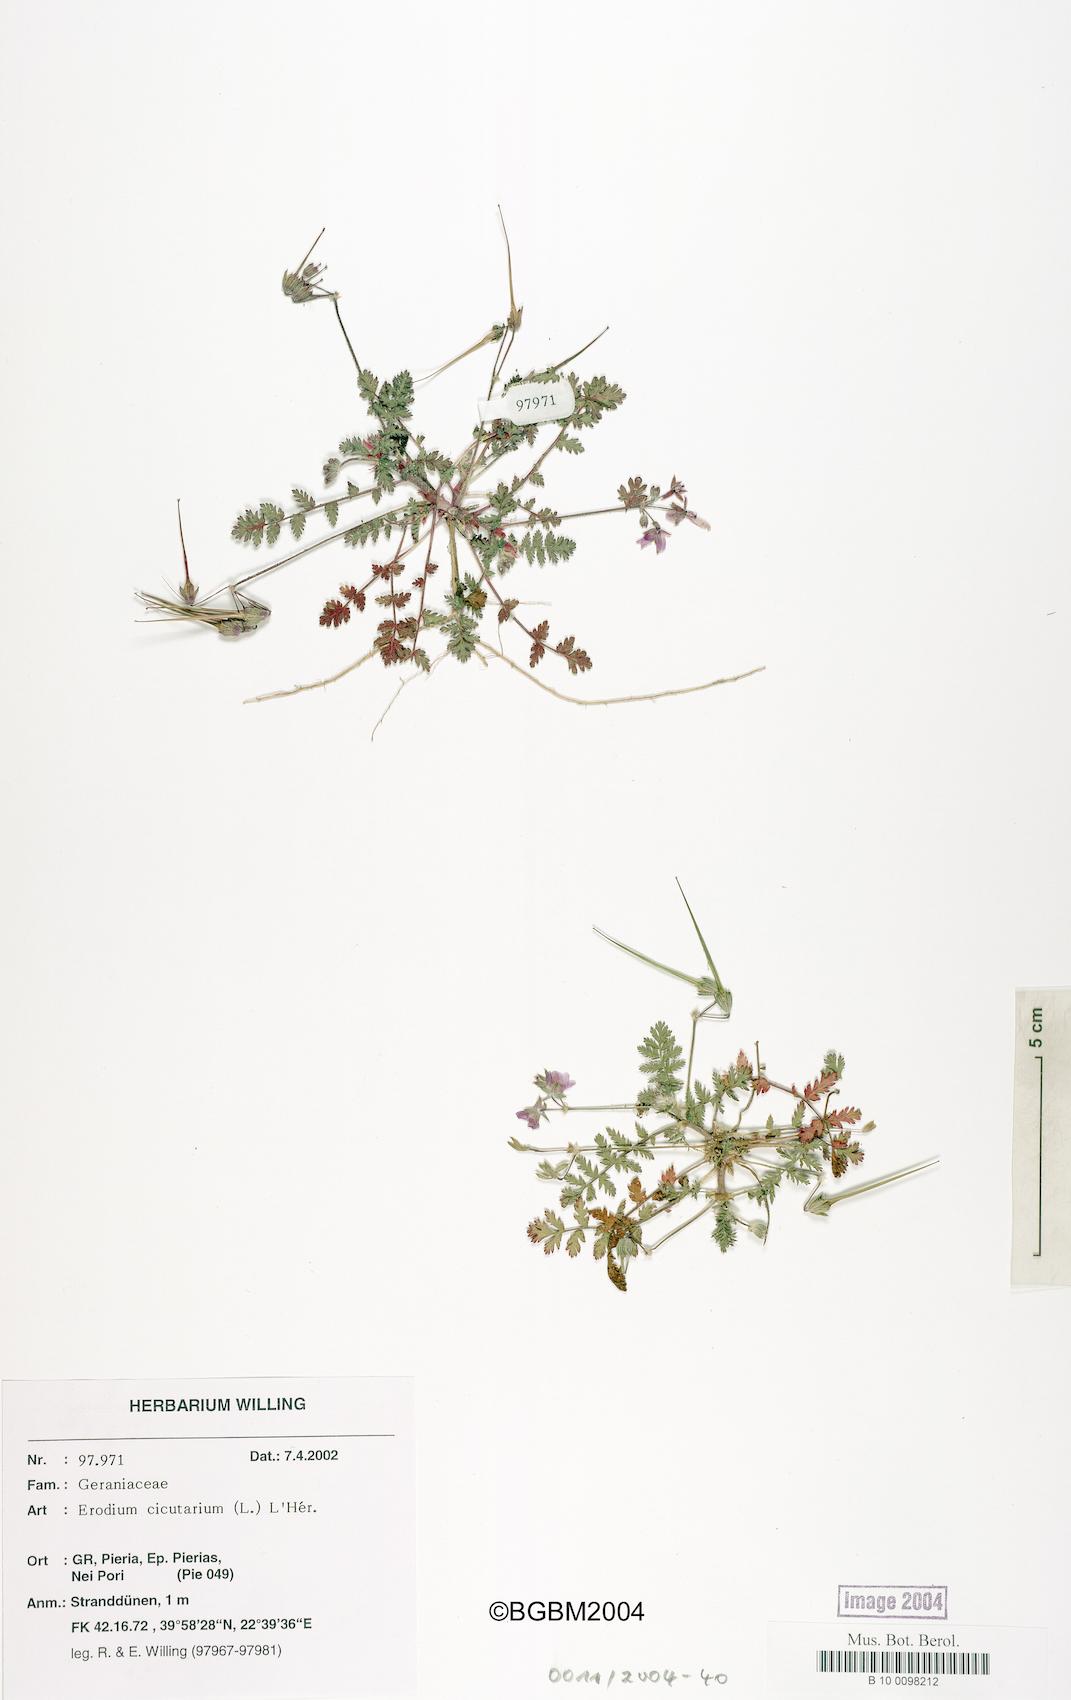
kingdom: Plantae
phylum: Tracheophyta
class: Magnoliopsida
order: Geraniales
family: Geraniaceae
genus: Erodium
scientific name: Erodium cicutarium
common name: Common stork's-bill
